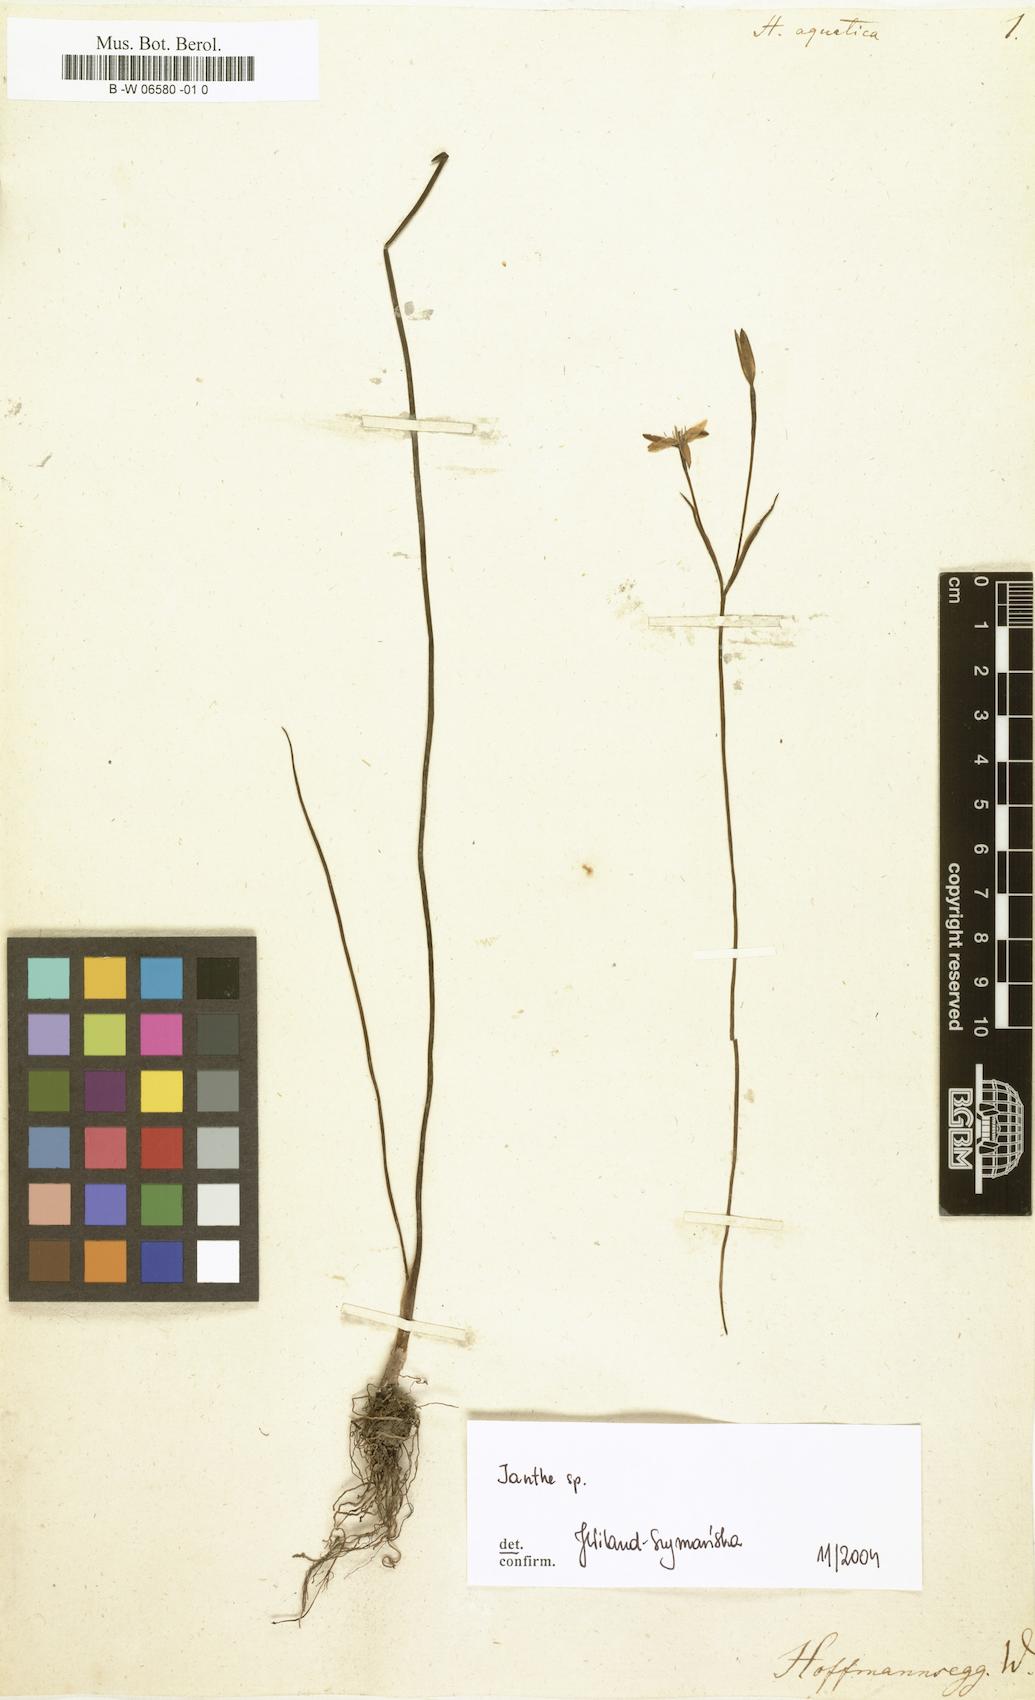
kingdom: Plantae
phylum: Tracheophyta
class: Liliopsida
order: Asparagales
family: Hypoxidaceae
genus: Pauridia
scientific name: Pauridia aquatica
